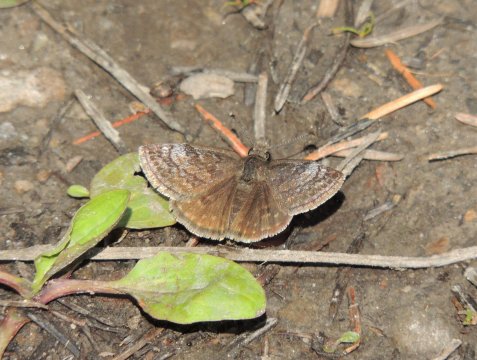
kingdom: Animalia
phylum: Arthropoda
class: Insecta
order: Lepidoptera
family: Hesperiidae
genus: Erynnis
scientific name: Erynnis icelus
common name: Dreamy Duskywing
